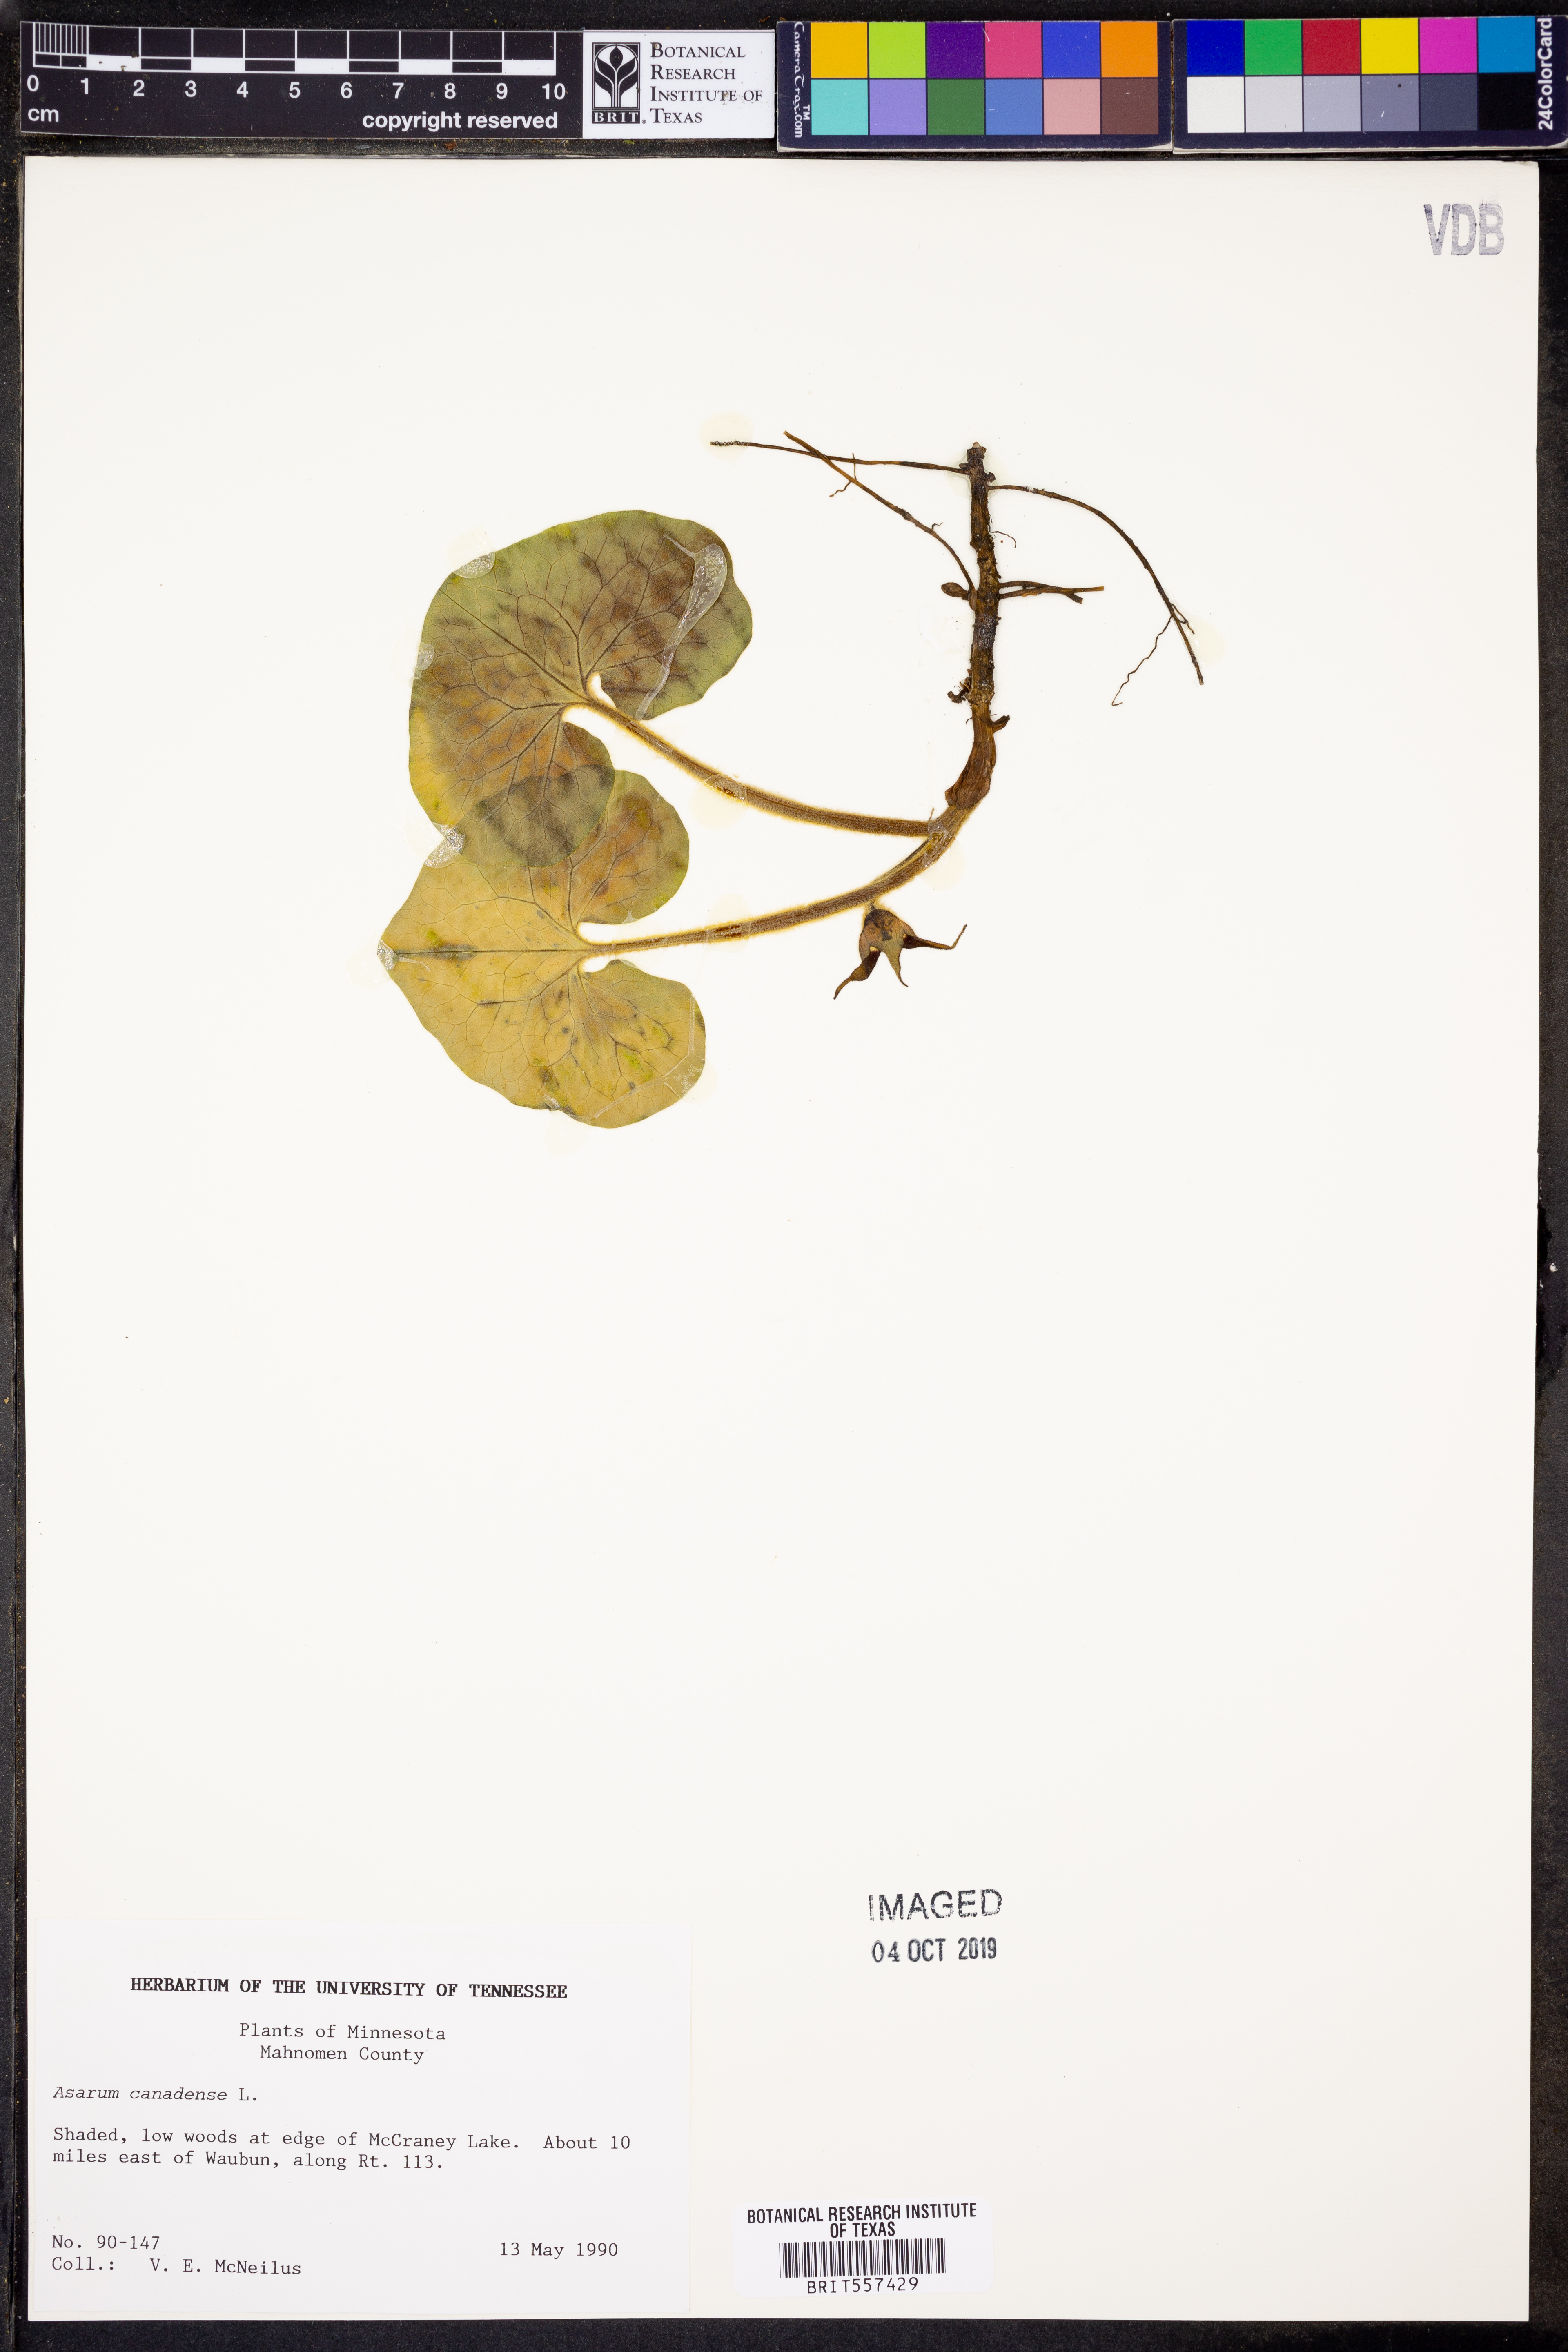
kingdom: Plantae
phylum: Tracheophyta
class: Magnoliopsida
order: Piperales
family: Aristolochiaceae
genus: Asarum
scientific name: Asarum canadense
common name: Wild ginger
